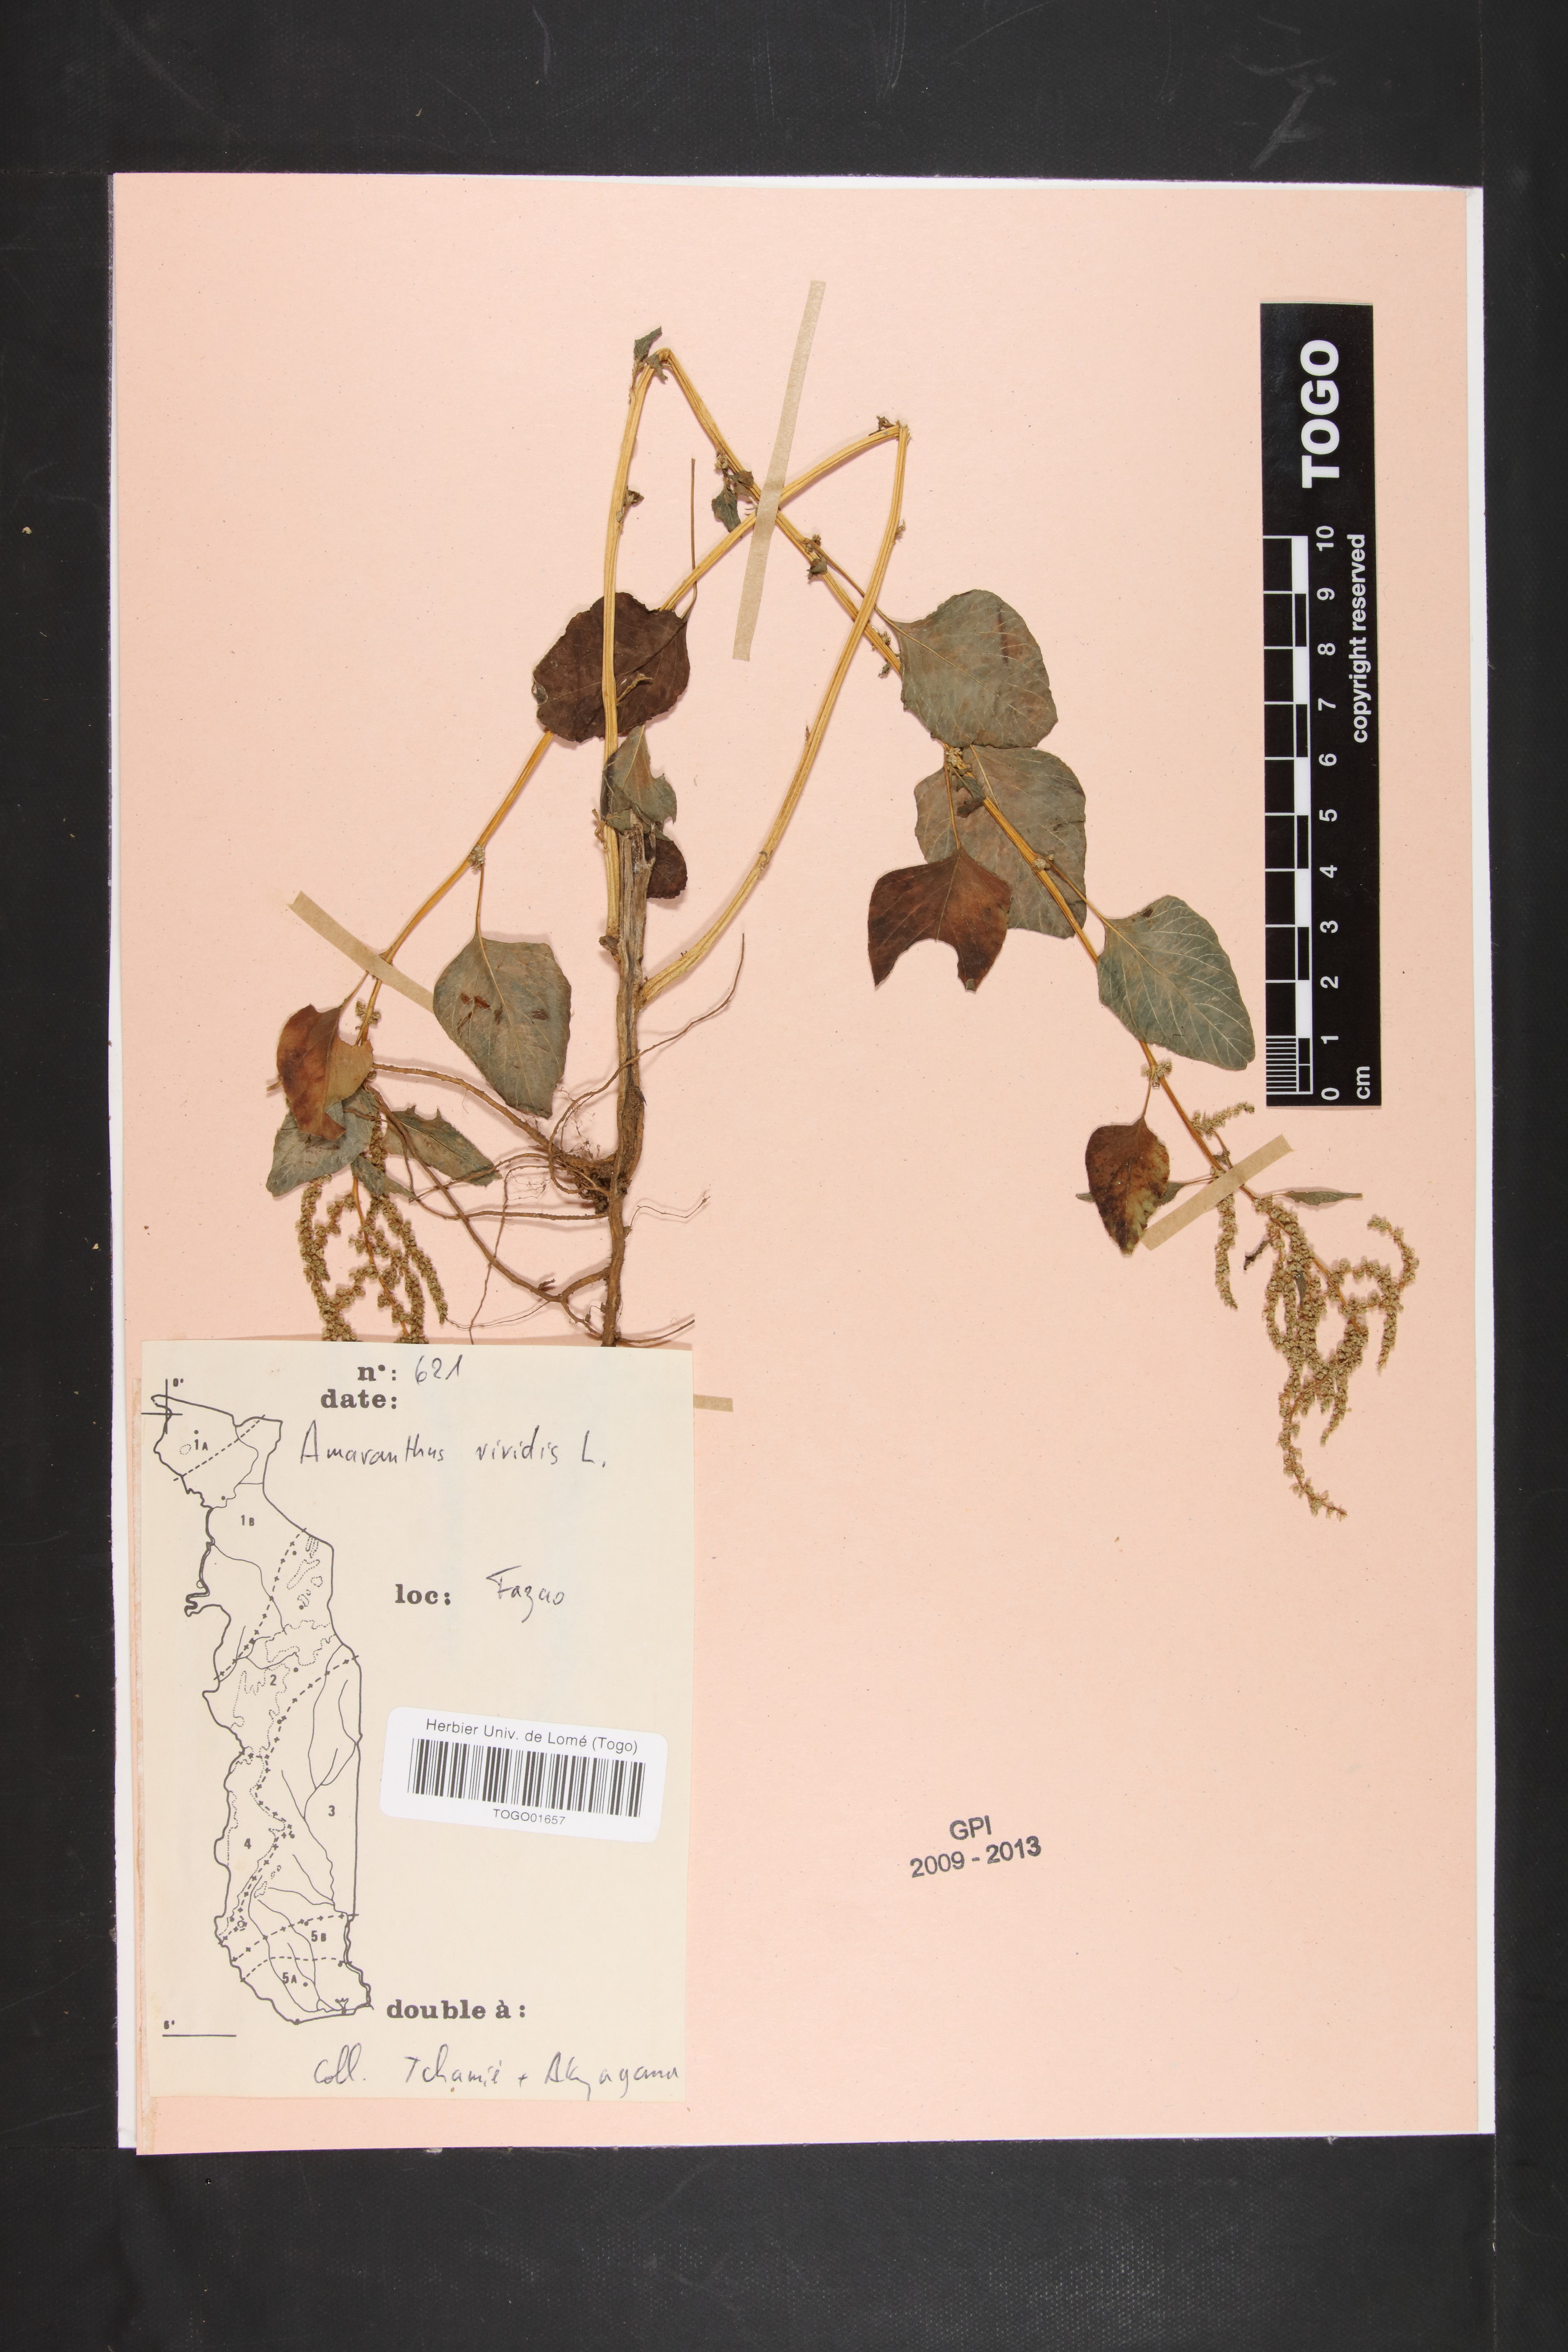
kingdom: Plantae
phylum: Tracheophyta
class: Magnoliopsida
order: Caryophyllales
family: Amaranthaceae
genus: Amaranthus
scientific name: Amaranthus viridis
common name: Slender amaranth
